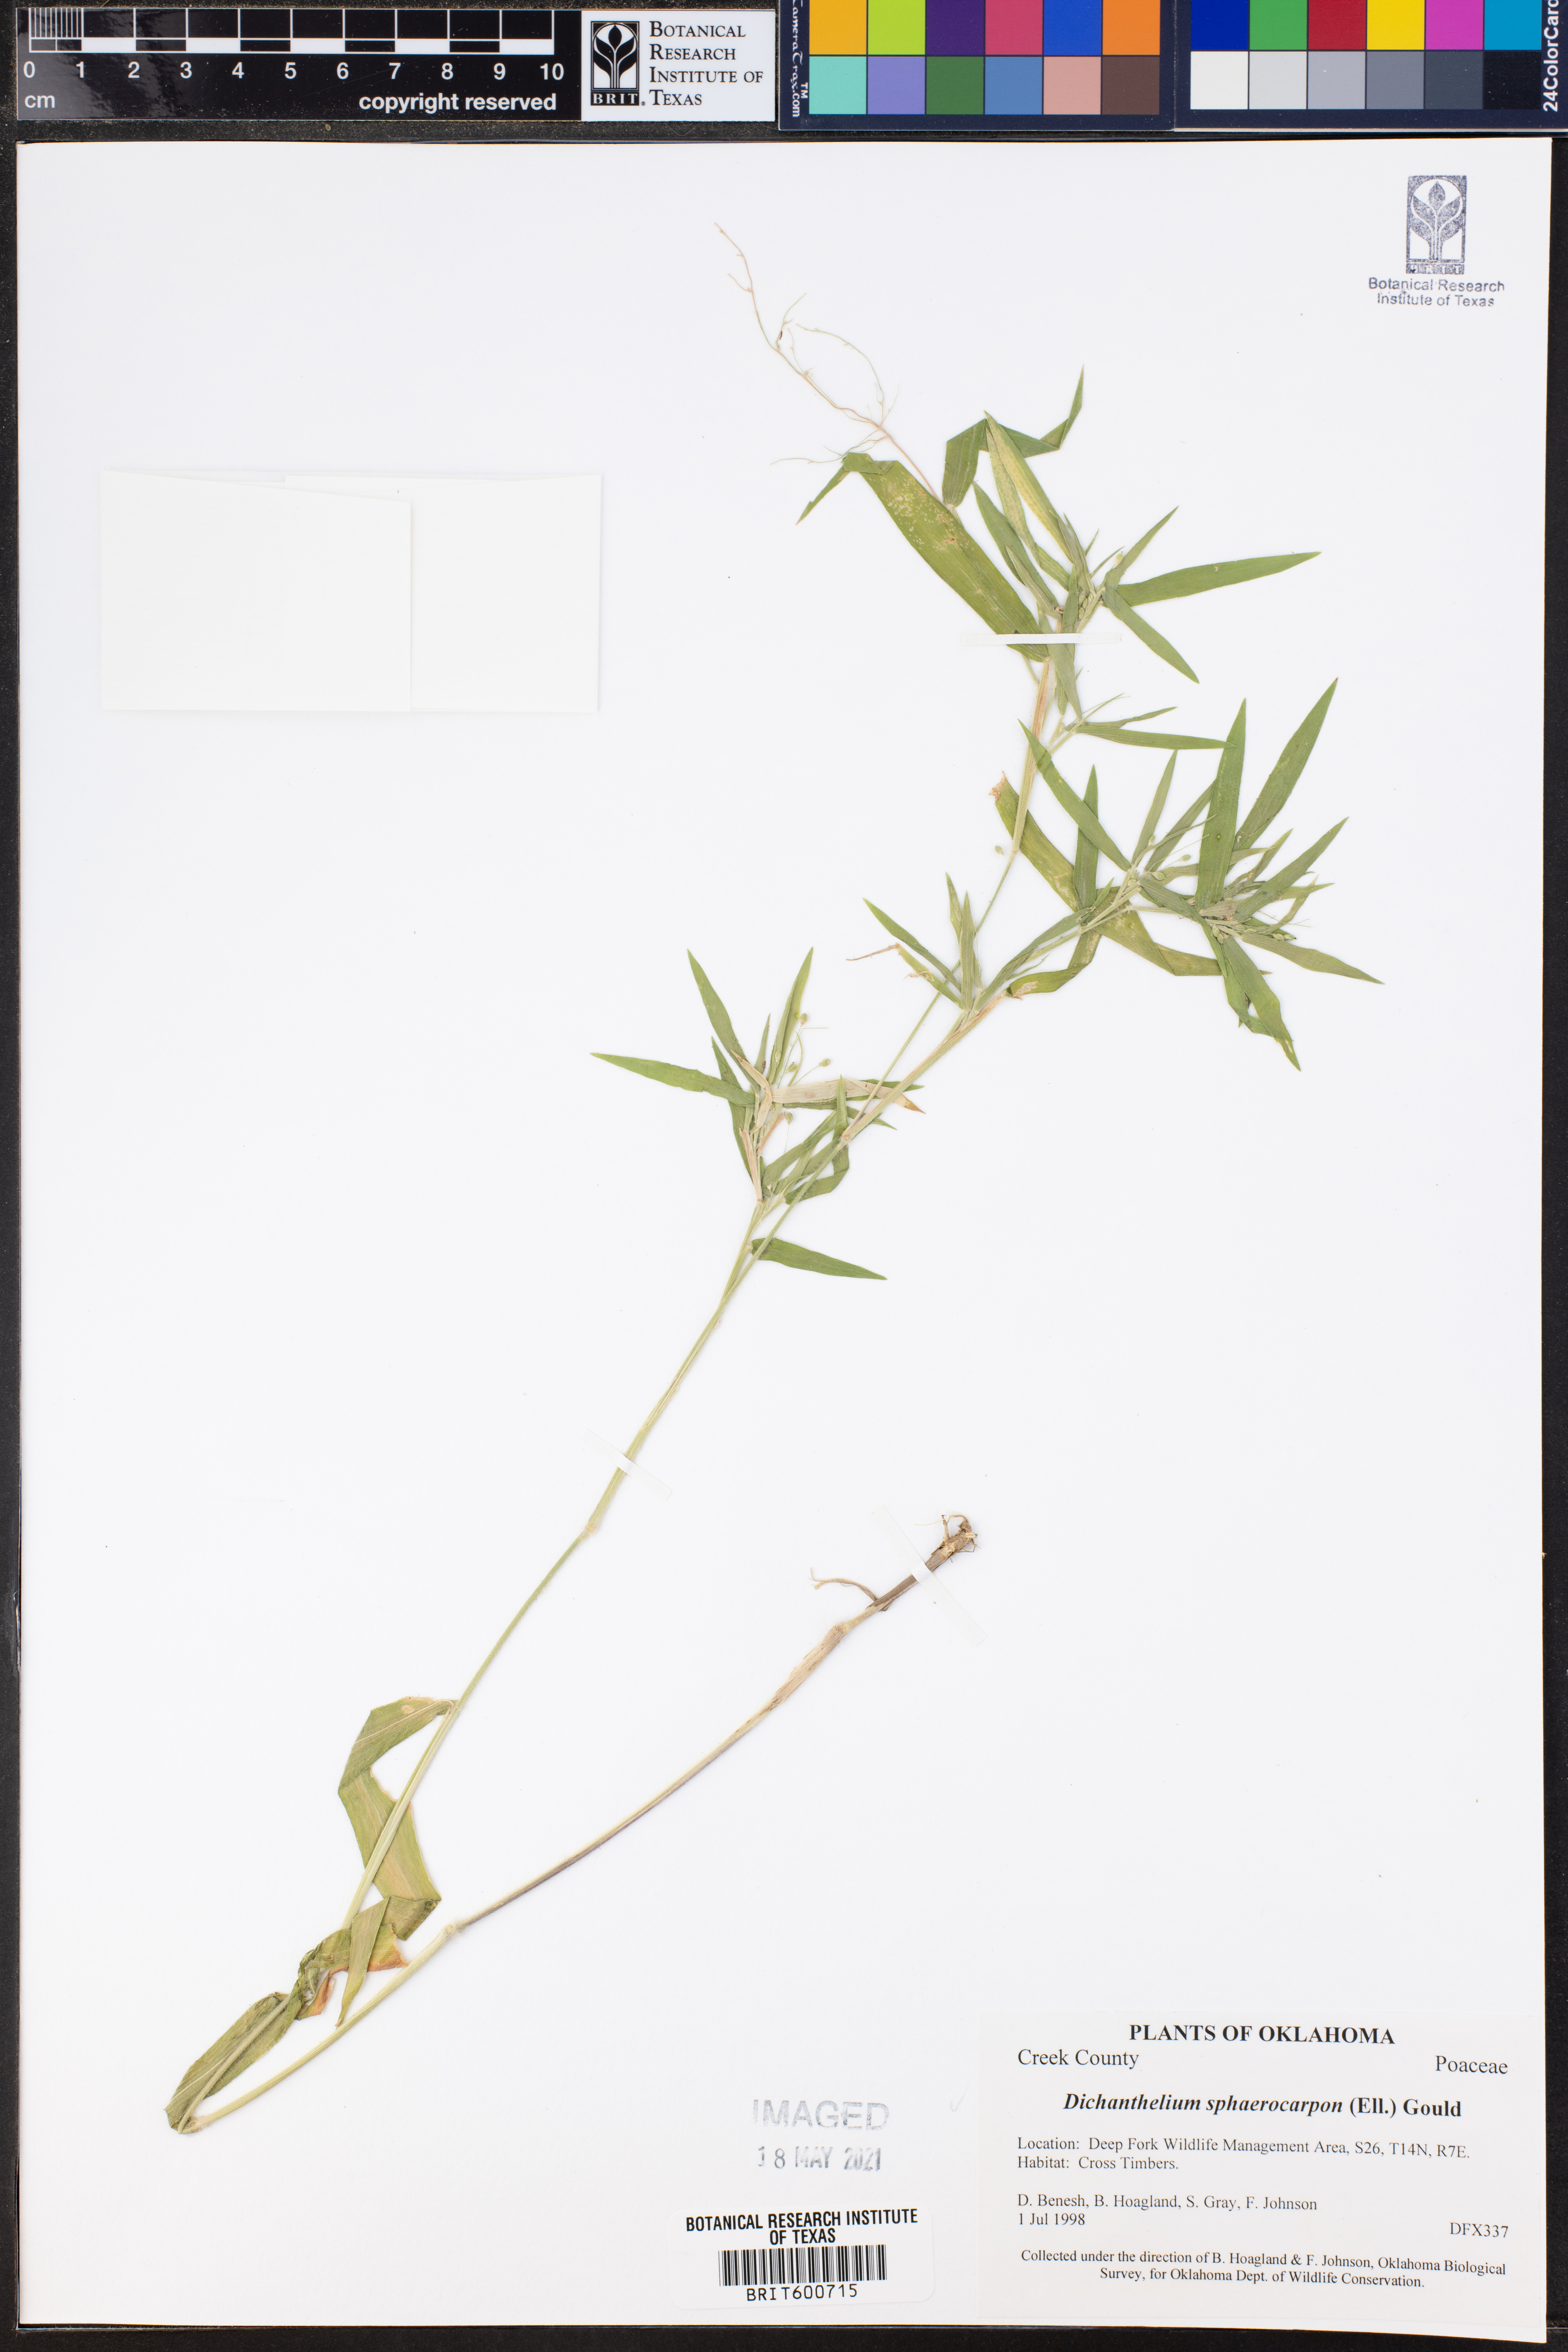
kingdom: Plantae
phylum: Tracheophyta
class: Liliopsida
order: Poales
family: Poaceae
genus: Dichanthelium
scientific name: Dichanthelium sphaerocarpon
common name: Round-fruited panicgrass
